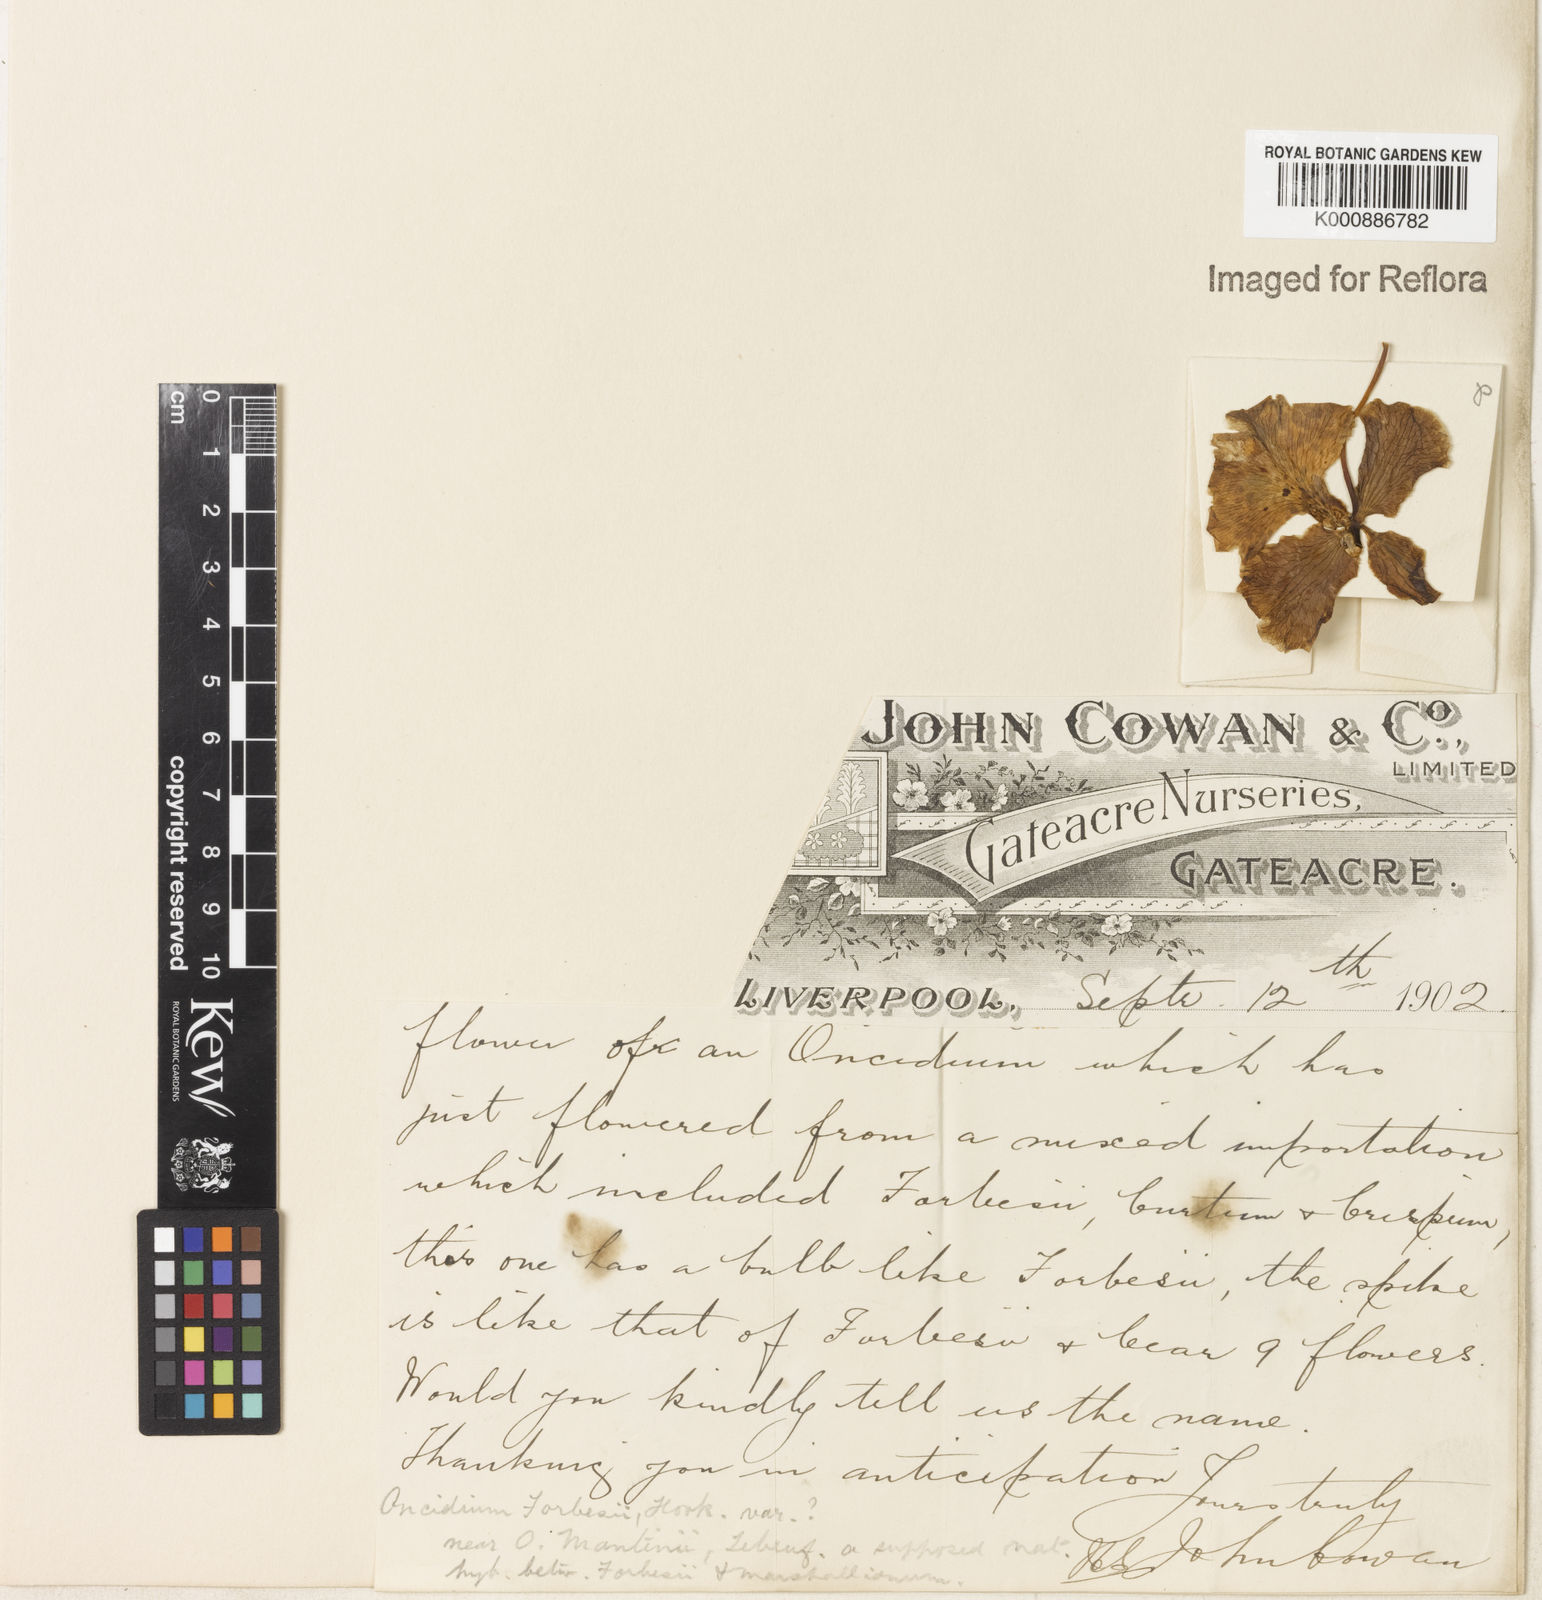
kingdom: Plantae
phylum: Tracheophyta
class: Liliopsida
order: Asparagales
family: Orchidaceae
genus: Gomesa
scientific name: Gomesa forbesii
